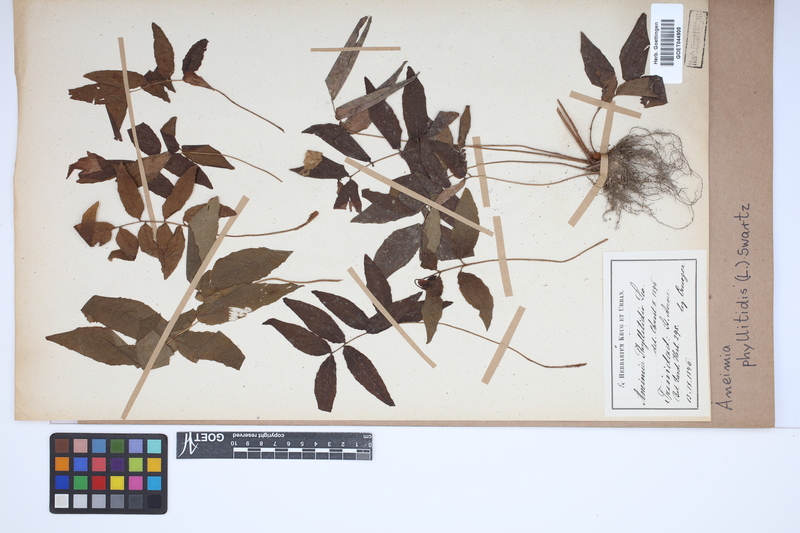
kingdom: Plantae
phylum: Tracheophyta
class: Polypodiopsida
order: Schizaeales
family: Anemiaceae
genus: Anemia
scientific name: Anemia phyllitidis
